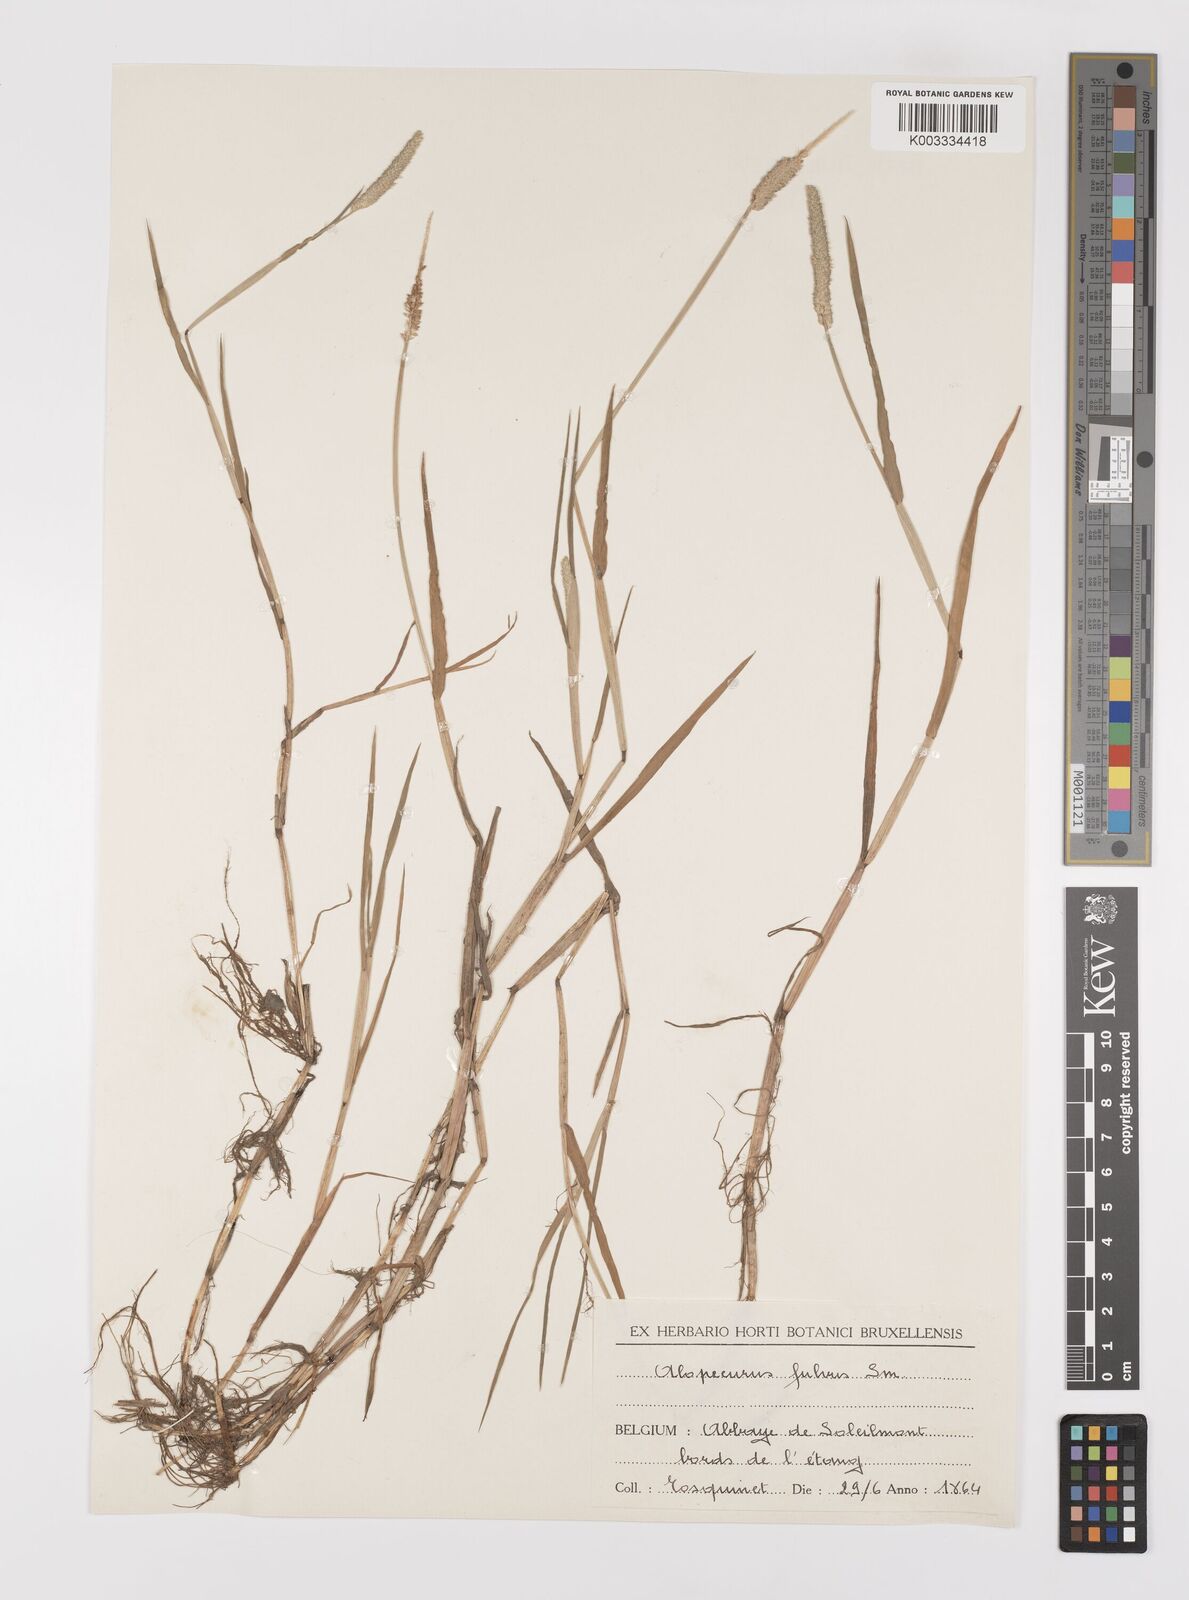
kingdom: Plantae
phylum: Tracheophyta
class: Liliopsida
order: Poales
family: Poaceae
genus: Alopecurus
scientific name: Alopecurus aequalis
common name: Orange foxtail
